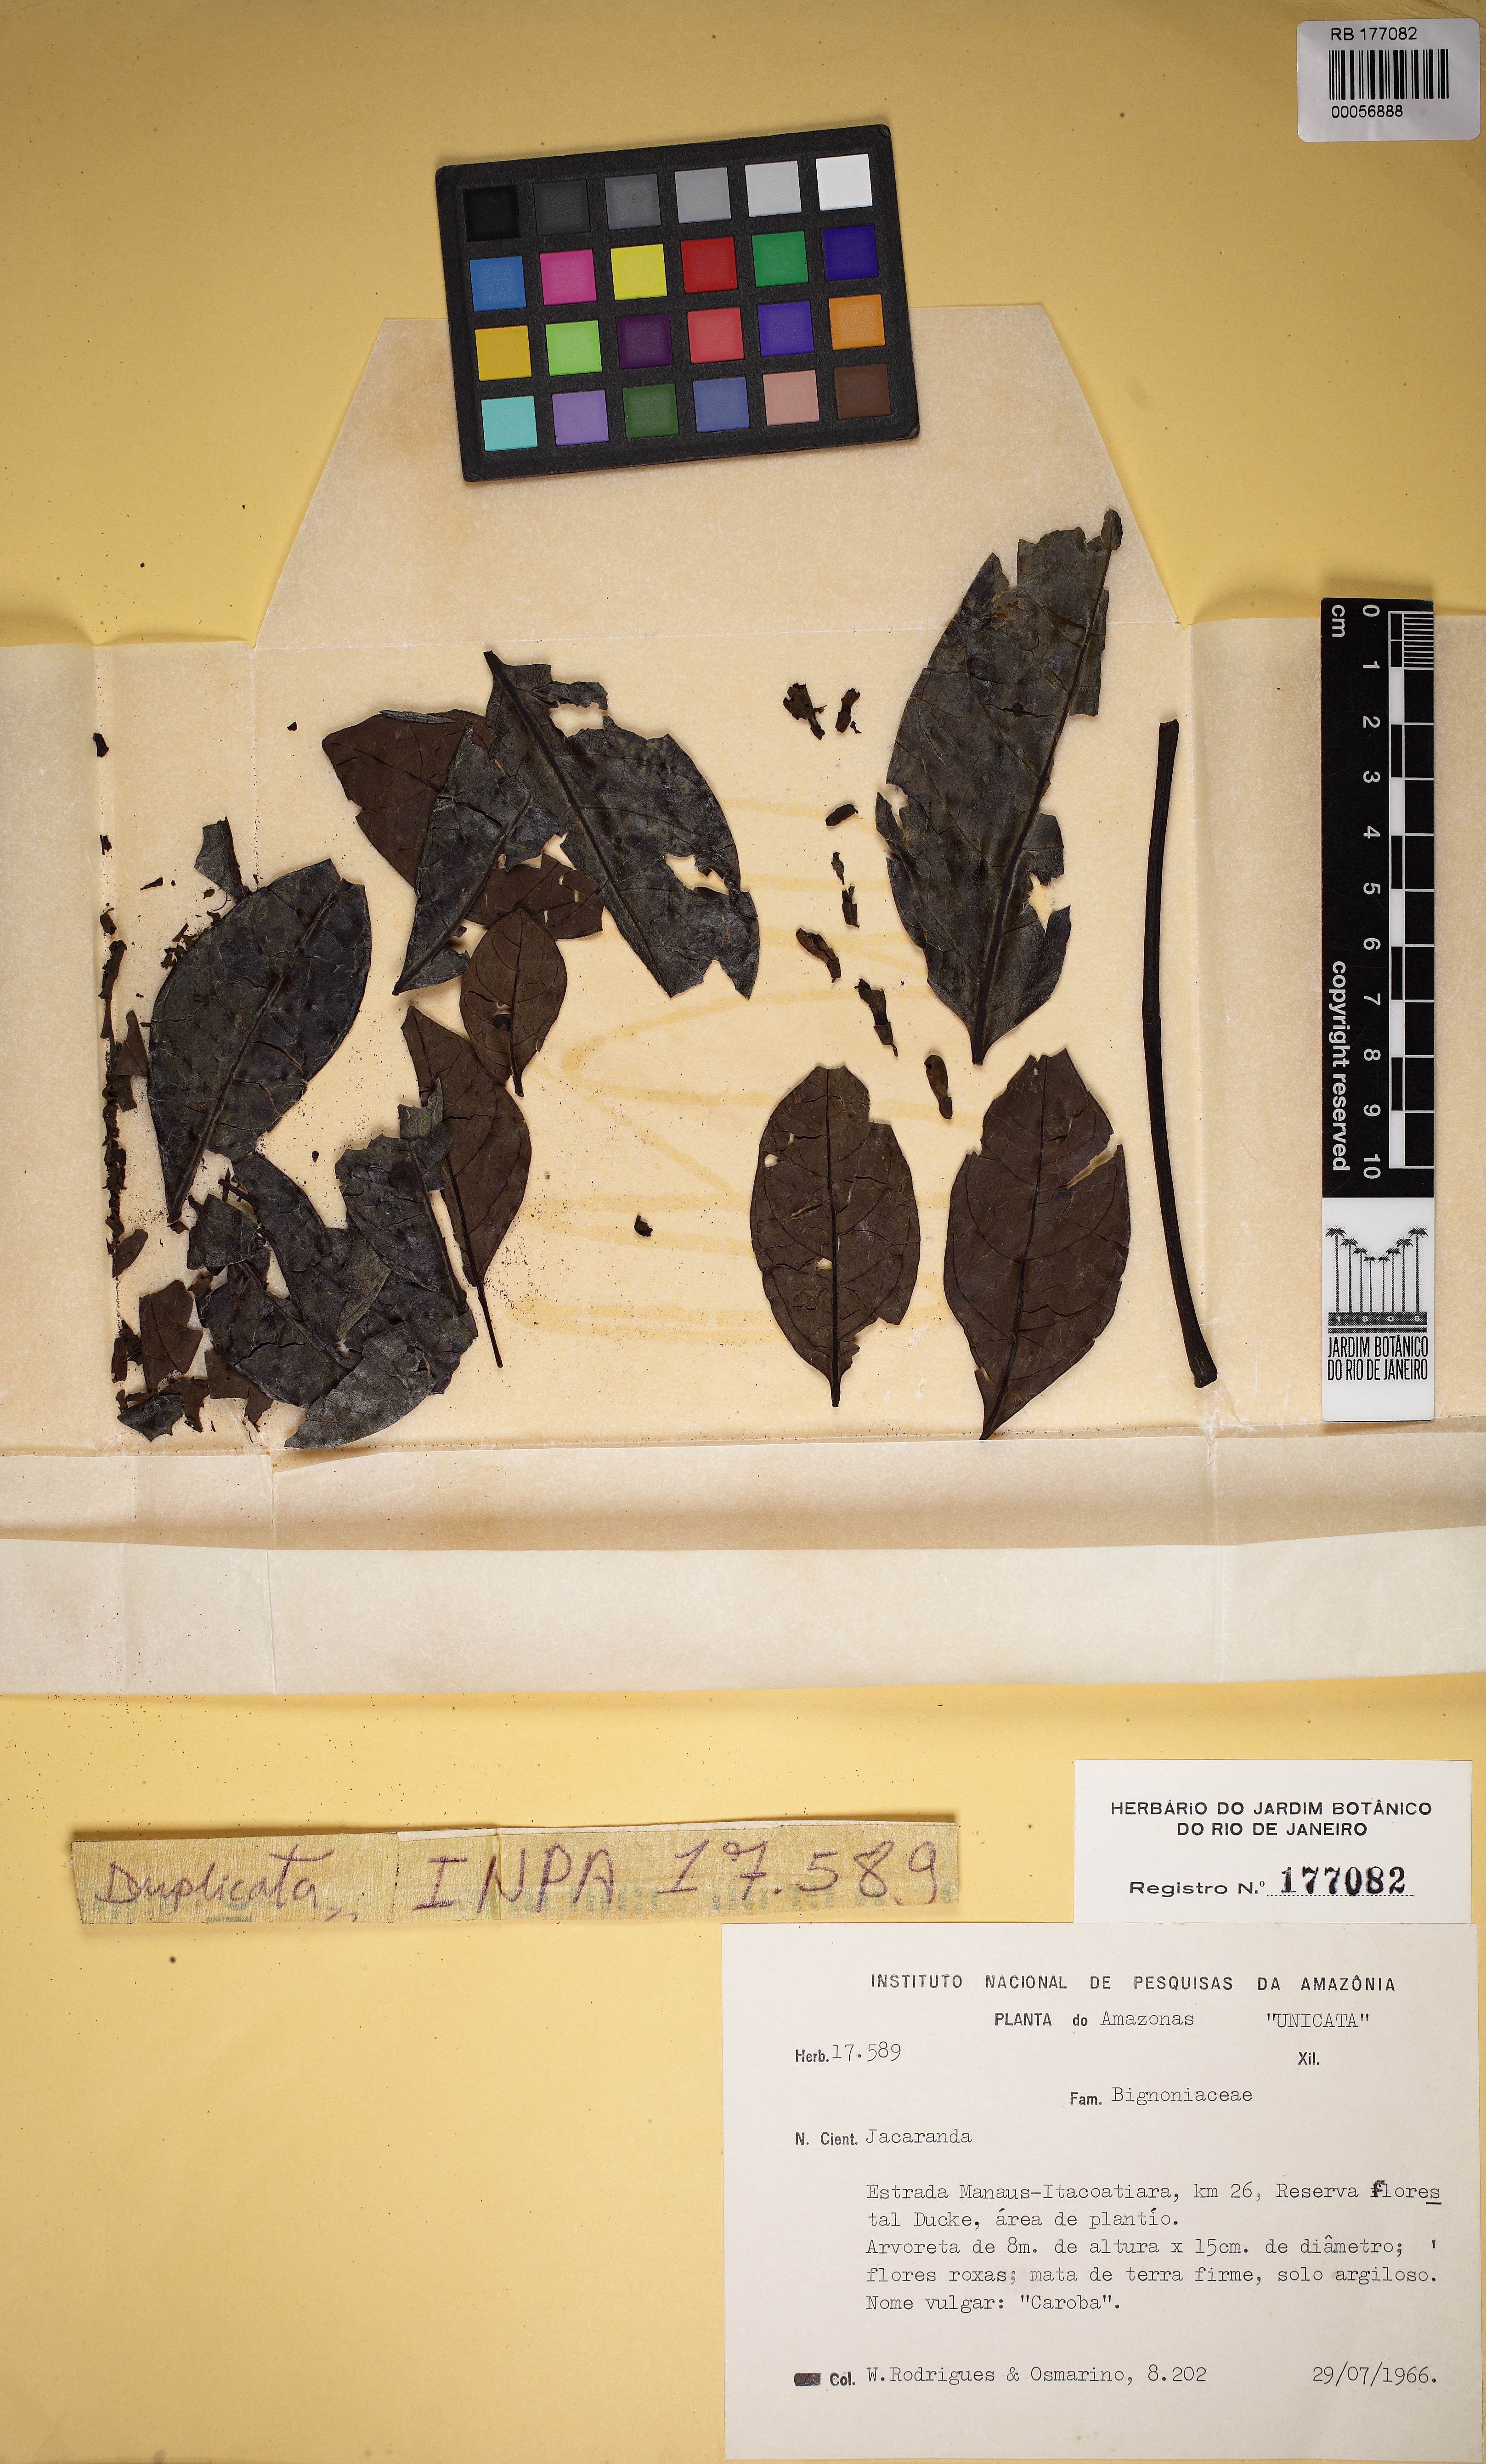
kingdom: Plantae
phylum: Tracheophyta
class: Magnoliopsida
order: Lamiales
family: Bignoniaceae
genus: Jacaranda
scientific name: Jacaranda
